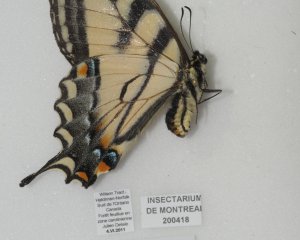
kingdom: Animalia
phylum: Arthropoda
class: Insecta
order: Lepidoptera
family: Papilionidae
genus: Pterourus
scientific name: Pterourus glaucus
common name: Eastern Tiger Swallowtail
